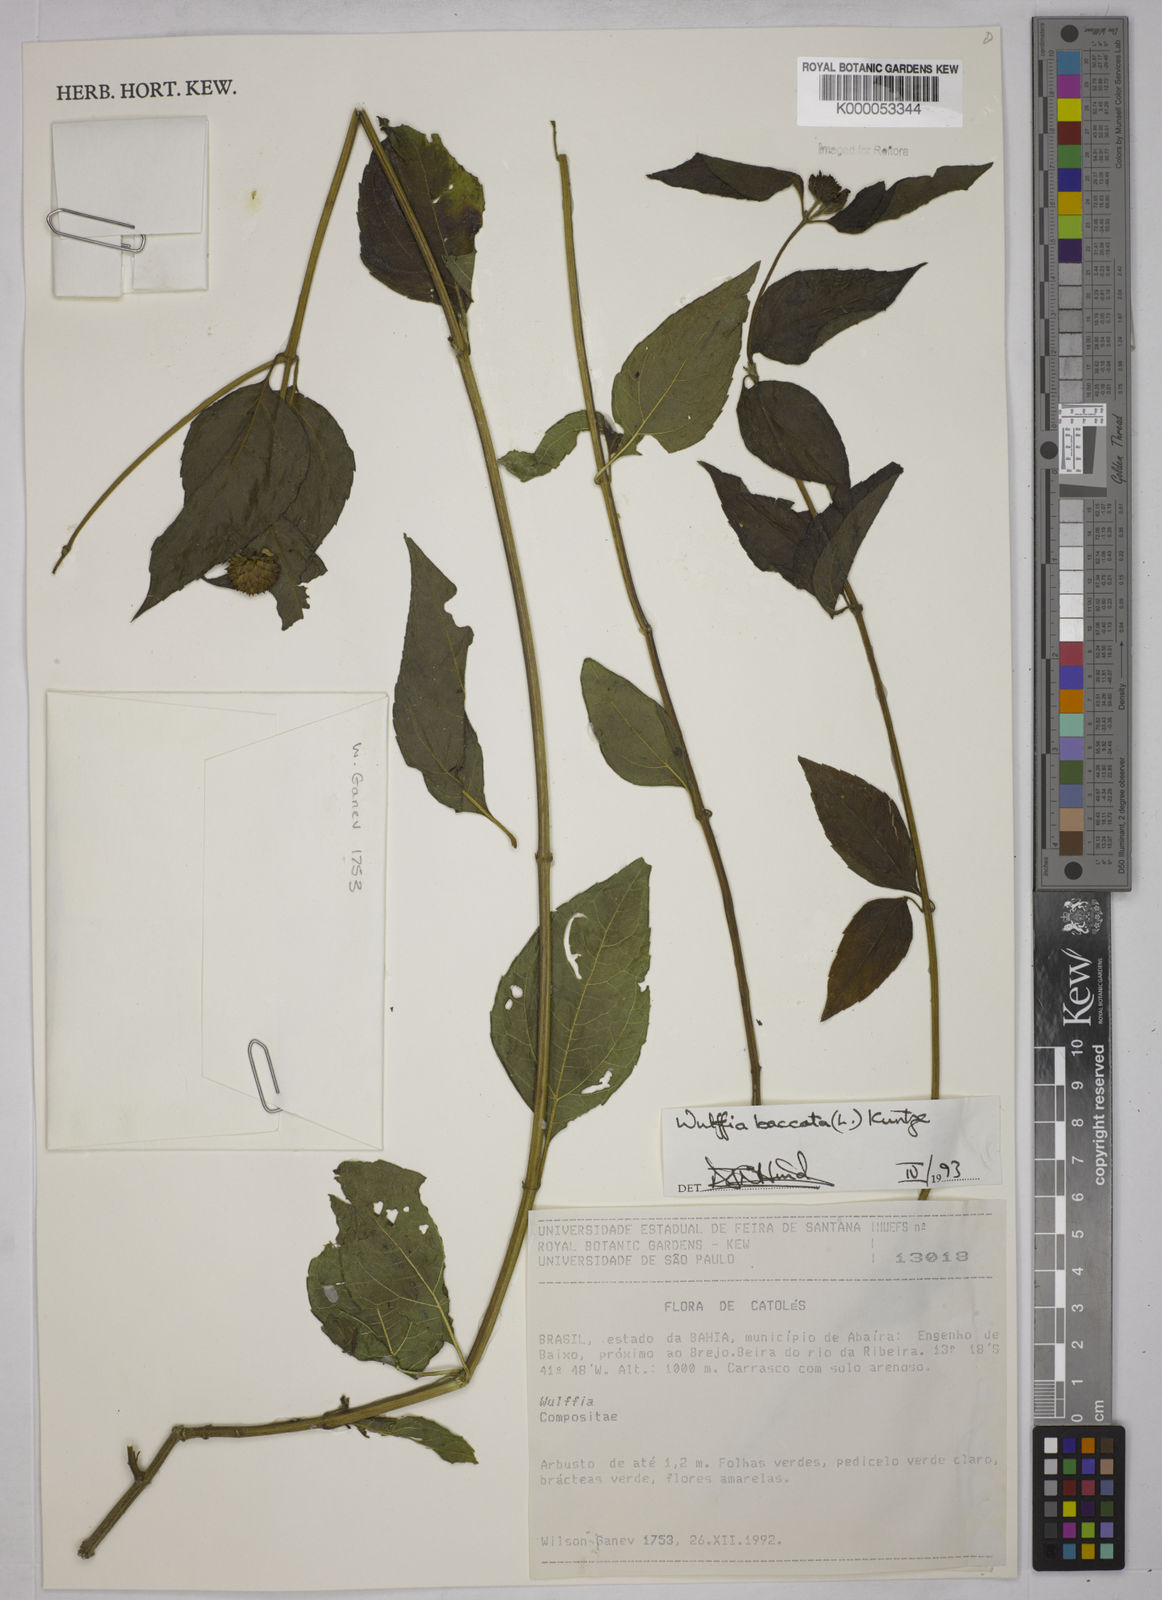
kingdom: Plantae
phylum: Tracheophyta
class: Magnoliopsida
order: Asterales
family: Asteraceae
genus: Tilesia
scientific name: Tilesia baccata
